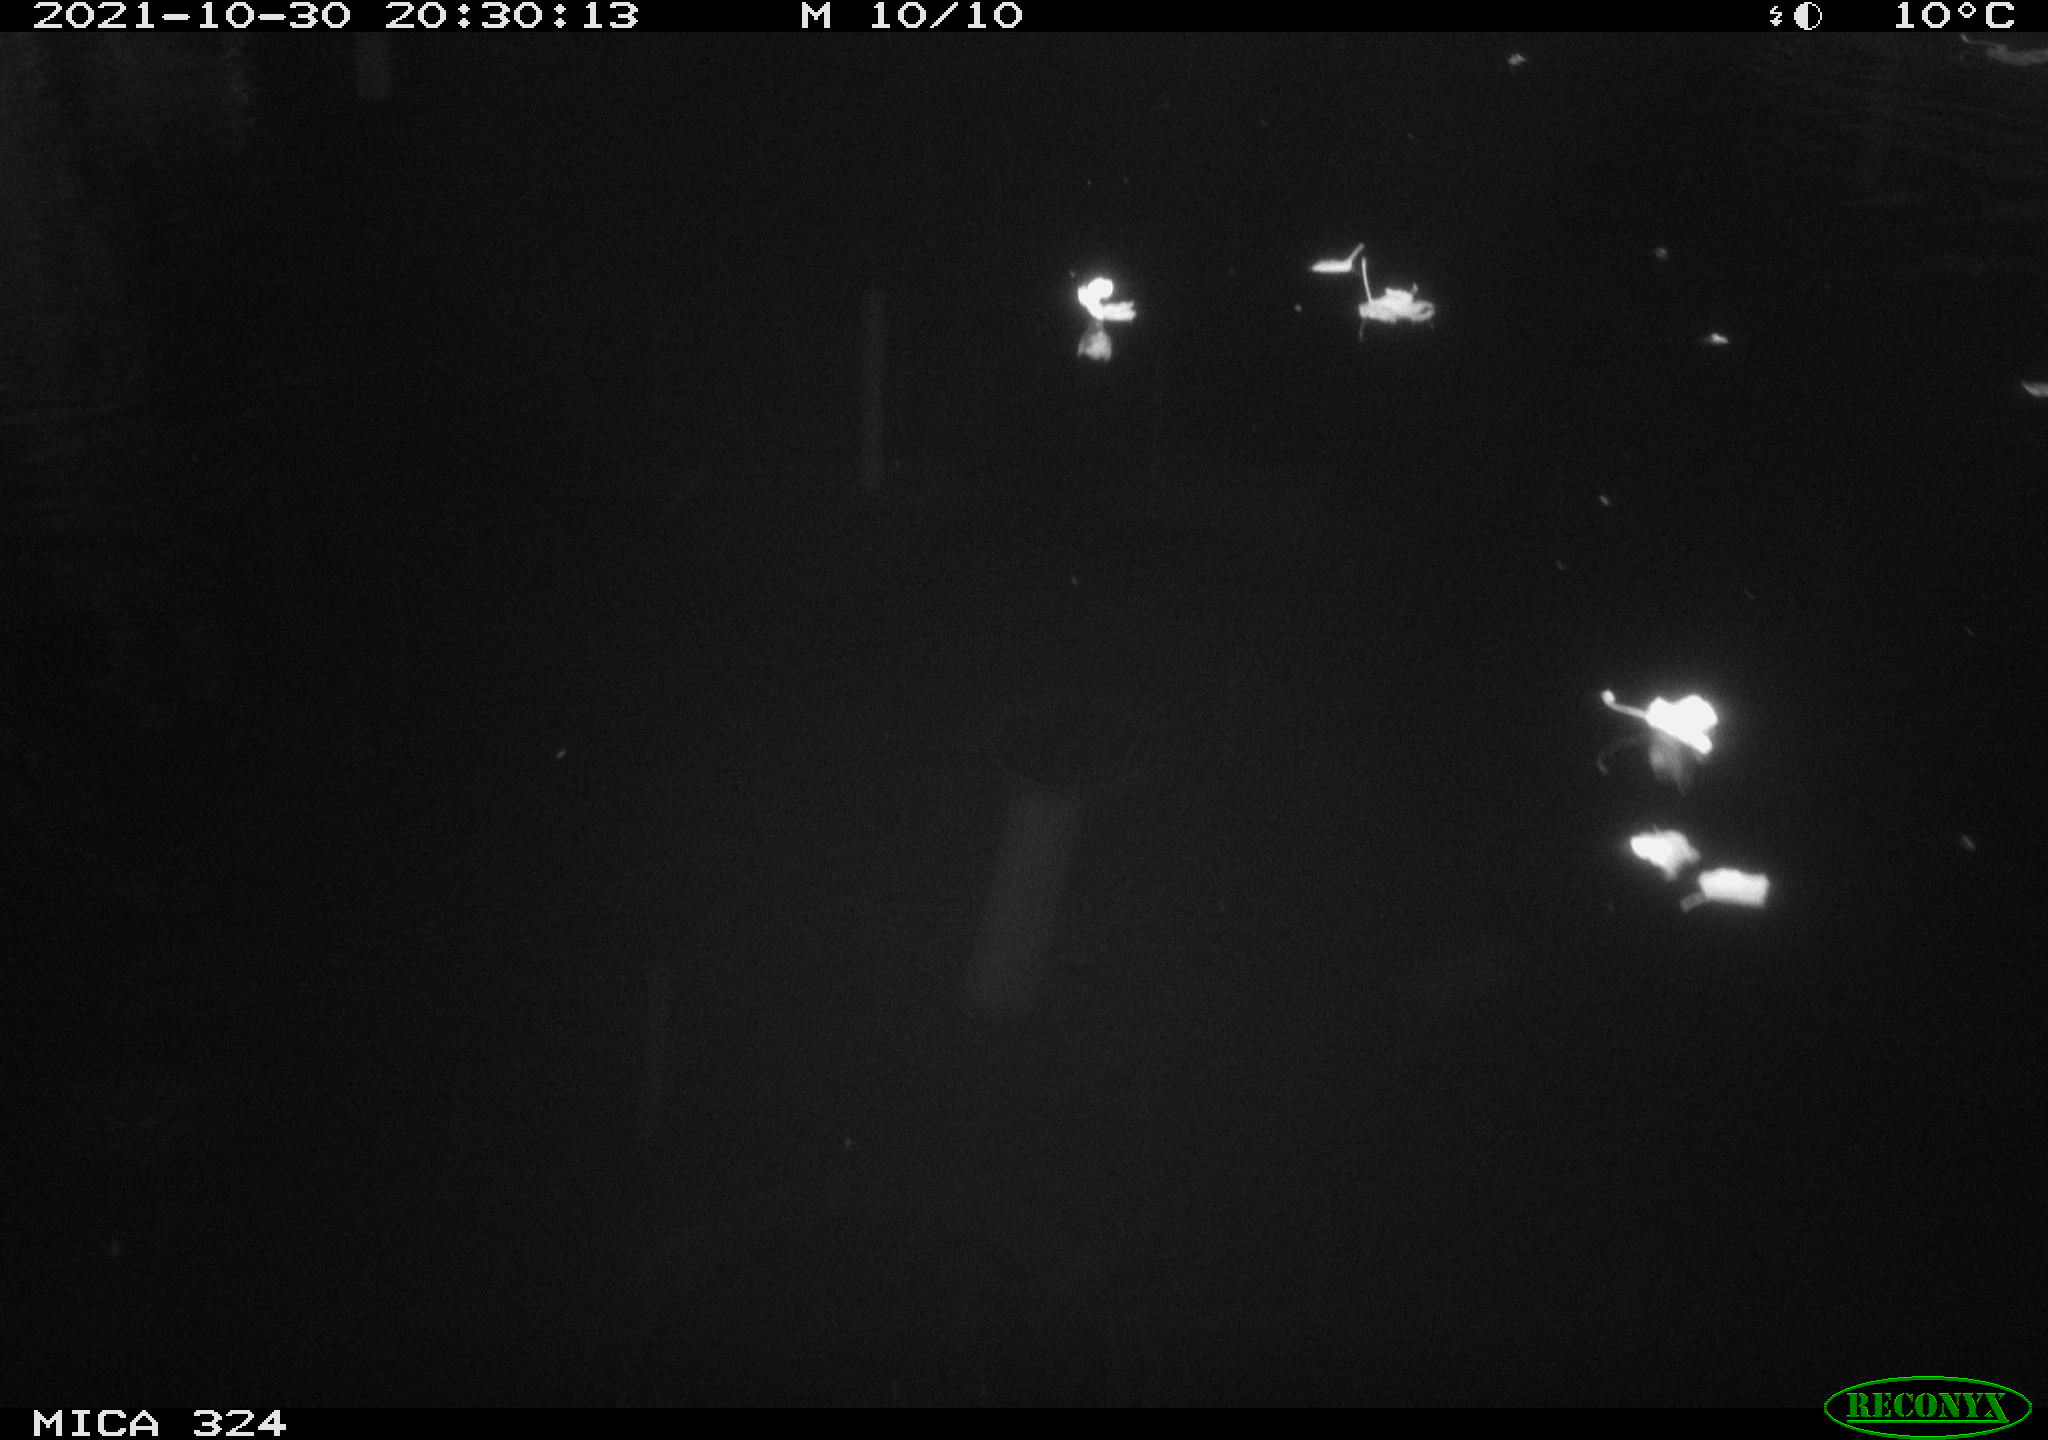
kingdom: Animalia
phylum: Chordata
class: Mammalia
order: Rodentia
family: Cricetidae
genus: Ondatra
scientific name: Ondatra zibethicus
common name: Muskrat
